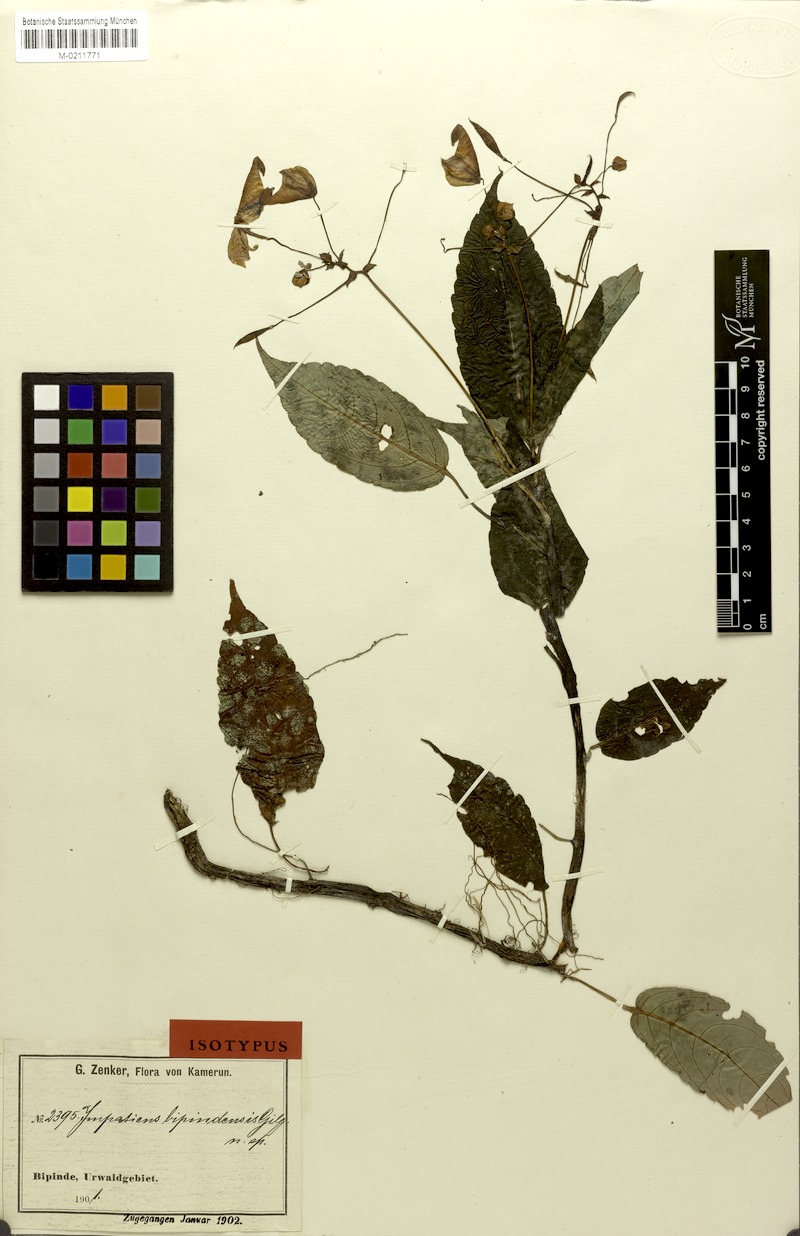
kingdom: Plantae
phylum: Tracheophyta
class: Magnoliopsida
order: Ericales
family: Balsaminaceae
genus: Impatiens
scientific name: Impatiens hians
